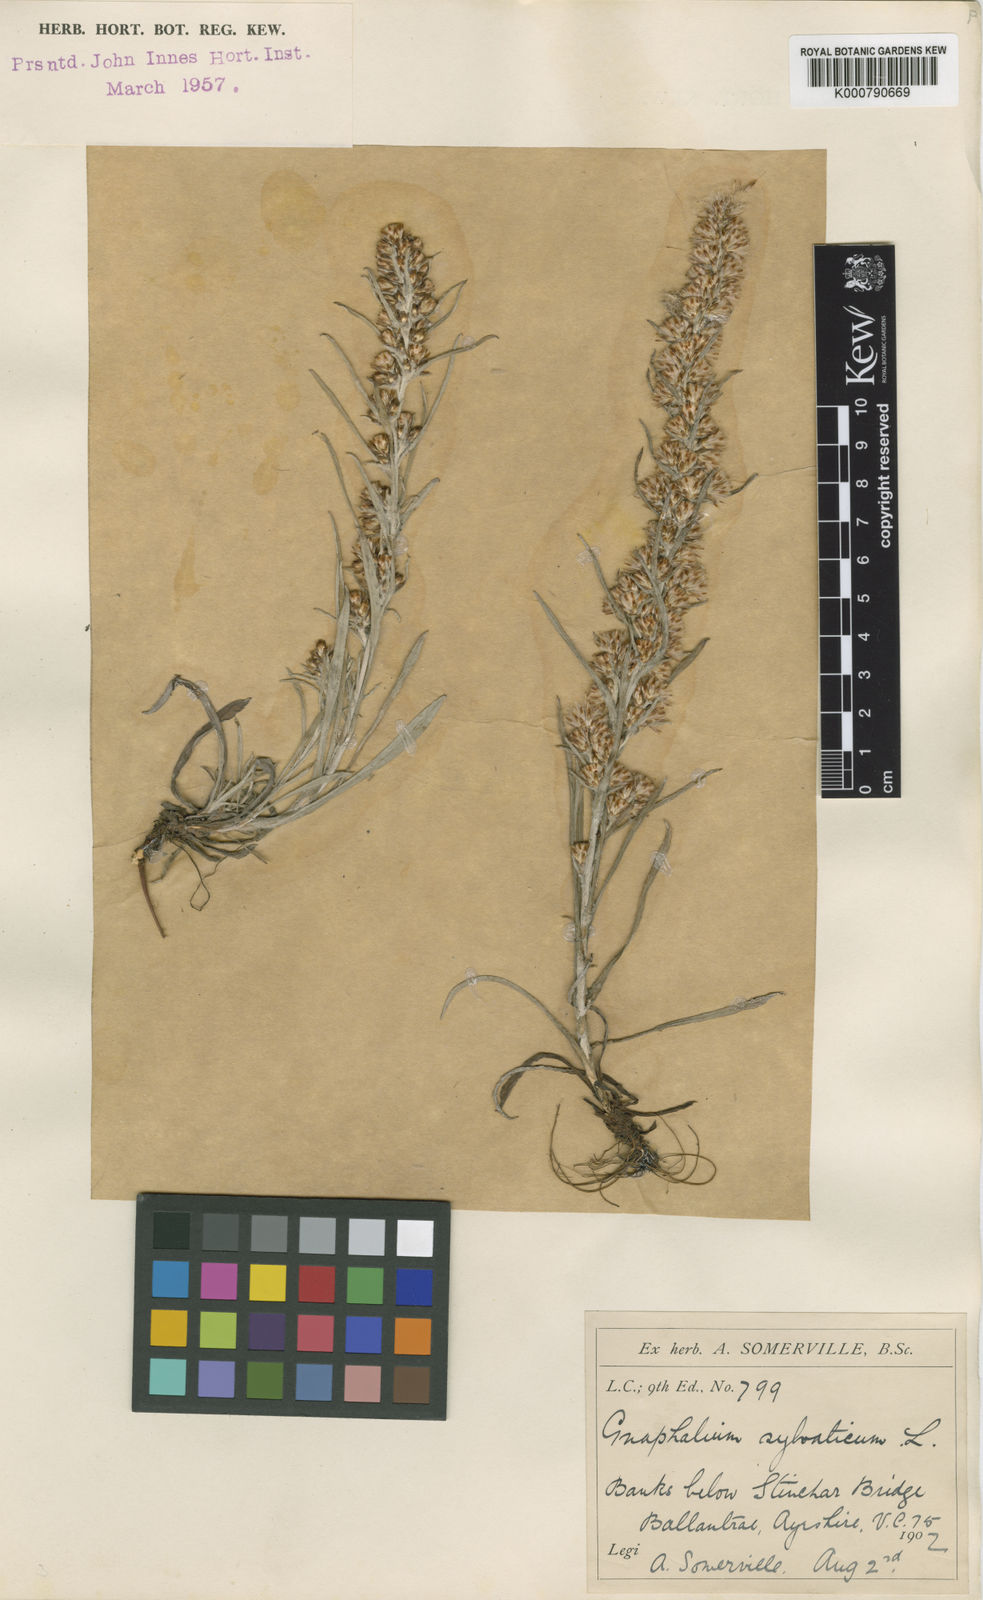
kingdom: Plantae
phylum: Tracheophyta
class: Magnoliopsida
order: Asterales
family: Asteraceae
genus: Omalotheca
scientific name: Omalotheca sylvatica
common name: Heath cudweed
